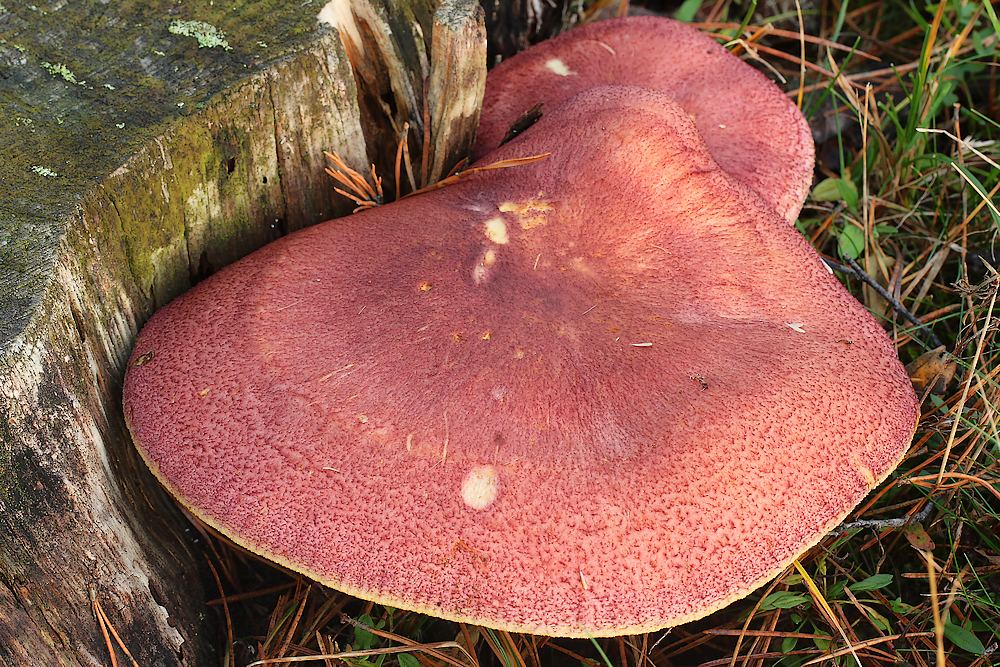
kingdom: Fungi
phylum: Basidiomycota
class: Agaricomycetes
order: Agaricales
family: Tricholomataceae
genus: Tricholomopsis
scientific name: Tricholomopsis rutilans
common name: purpur-væbnerhat
